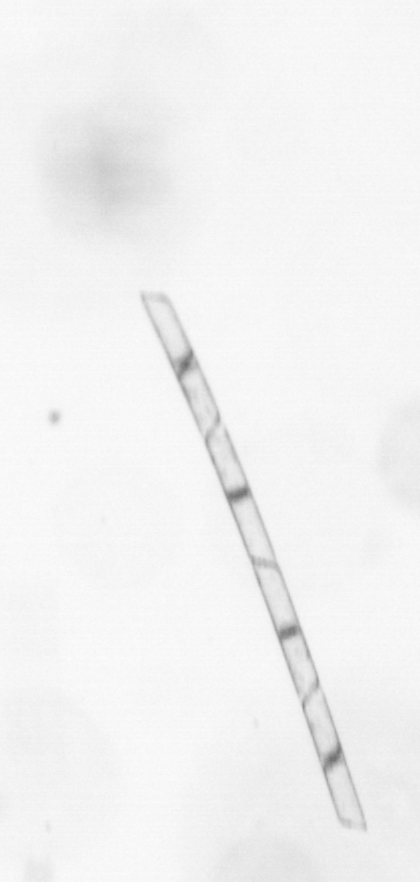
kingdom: Chromista
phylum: Ochrophyta
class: Bacillariophyceae
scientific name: Bacillariophyceae
